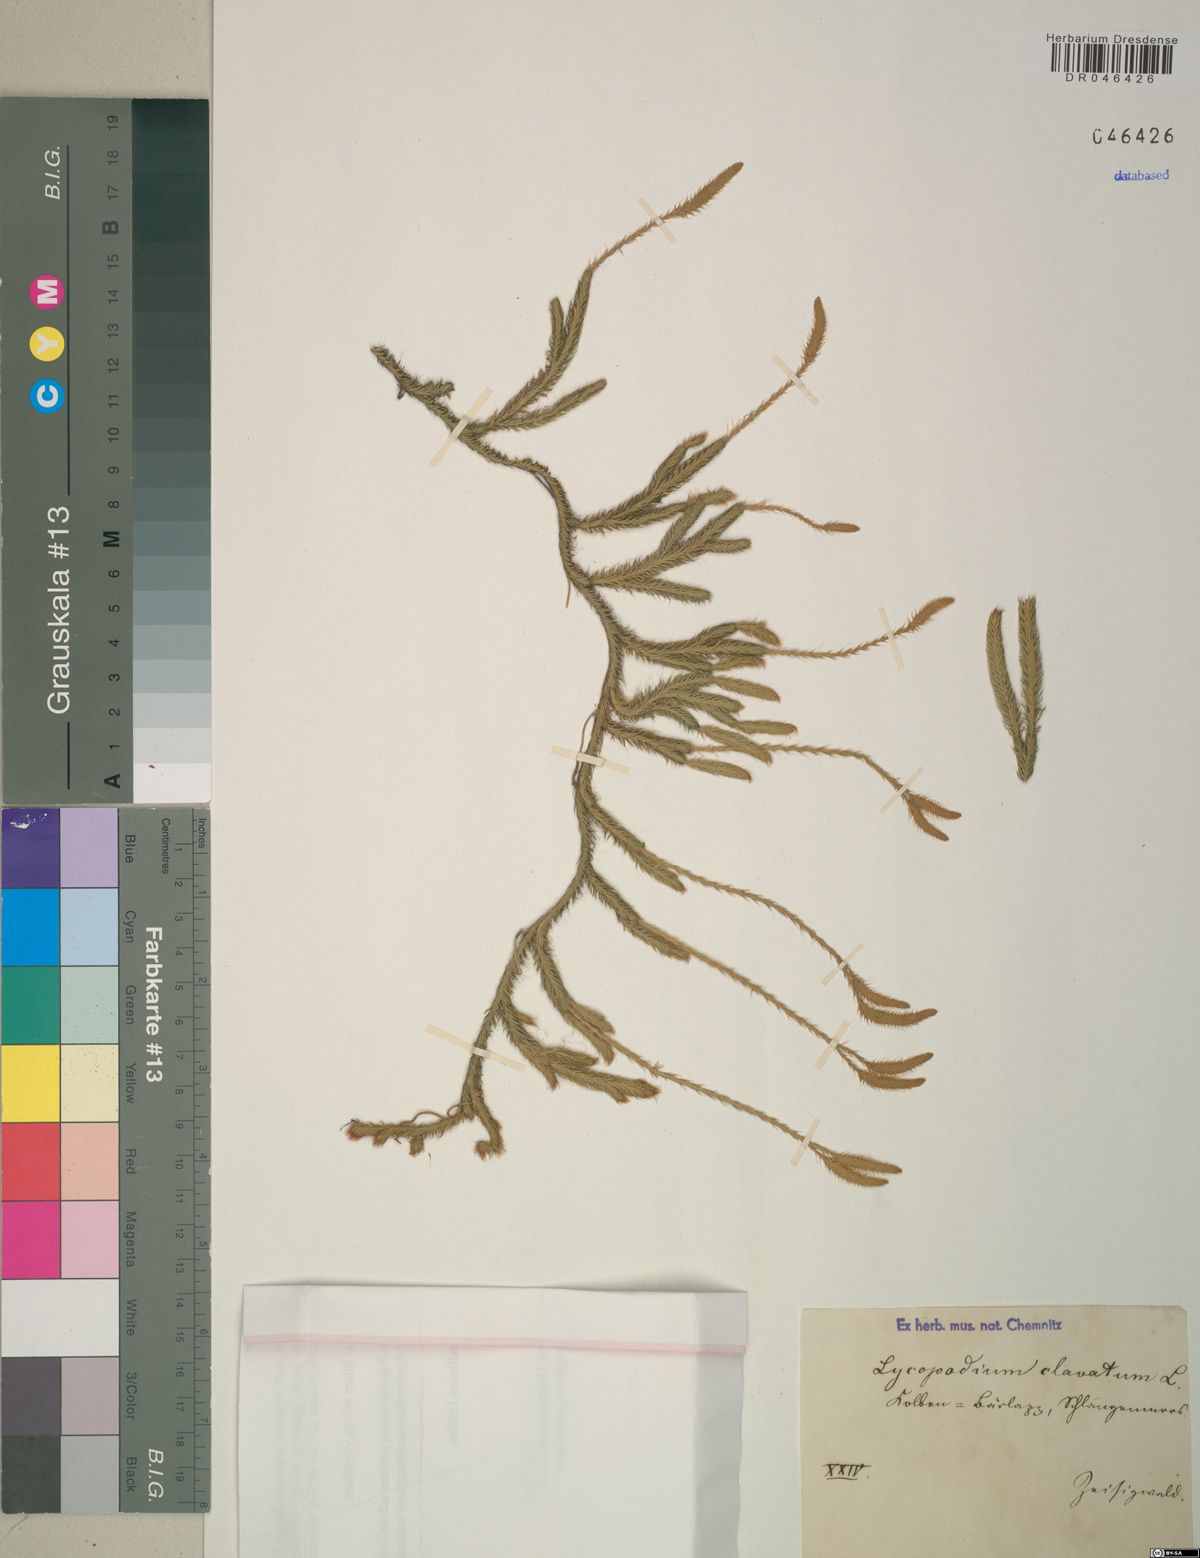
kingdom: Plantae
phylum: Tracheophyta
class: Lycopodiopsida
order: Lycopodiales
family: Lycopodiaceae
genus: Lycopodium
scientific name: Lycopodium clavatum
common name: Stag's-horn clubmoss
